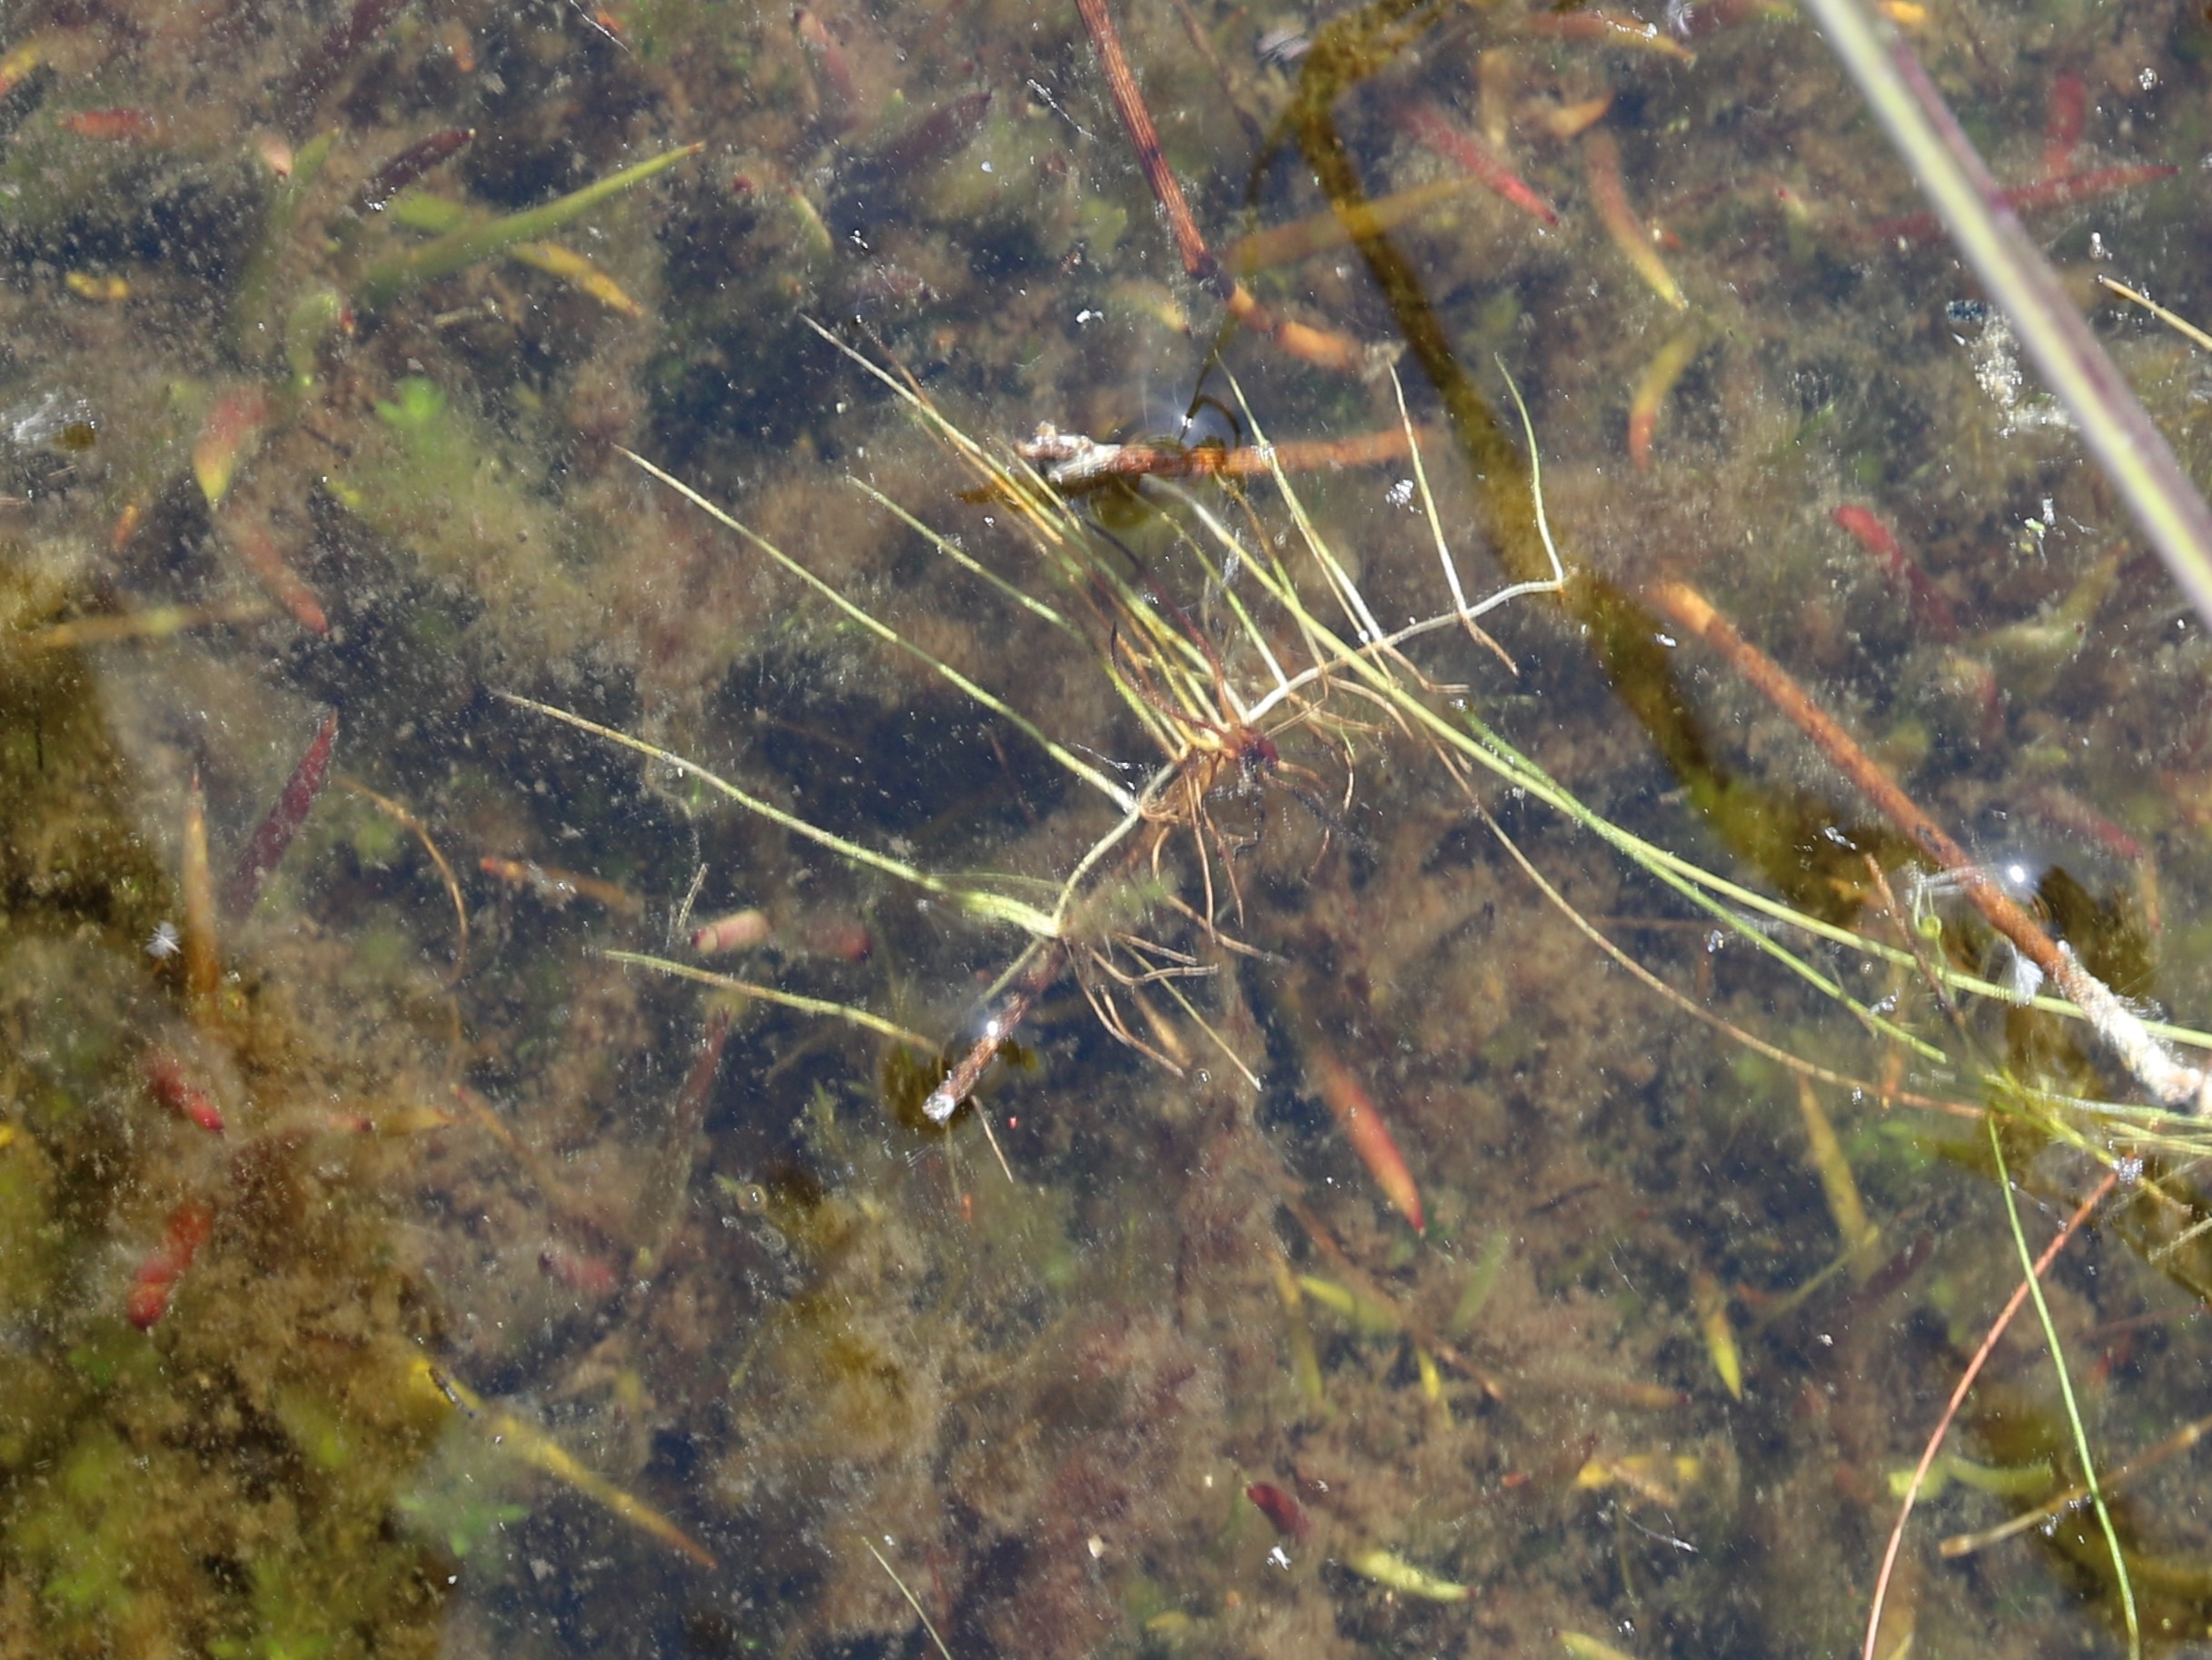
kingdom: Plantae
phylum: Tracheophyta
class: Polypodiopsida
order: Salviniales
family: Marsileaceae
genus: Pilularia
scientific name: Pilularia globulifera
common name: Pilledrager
